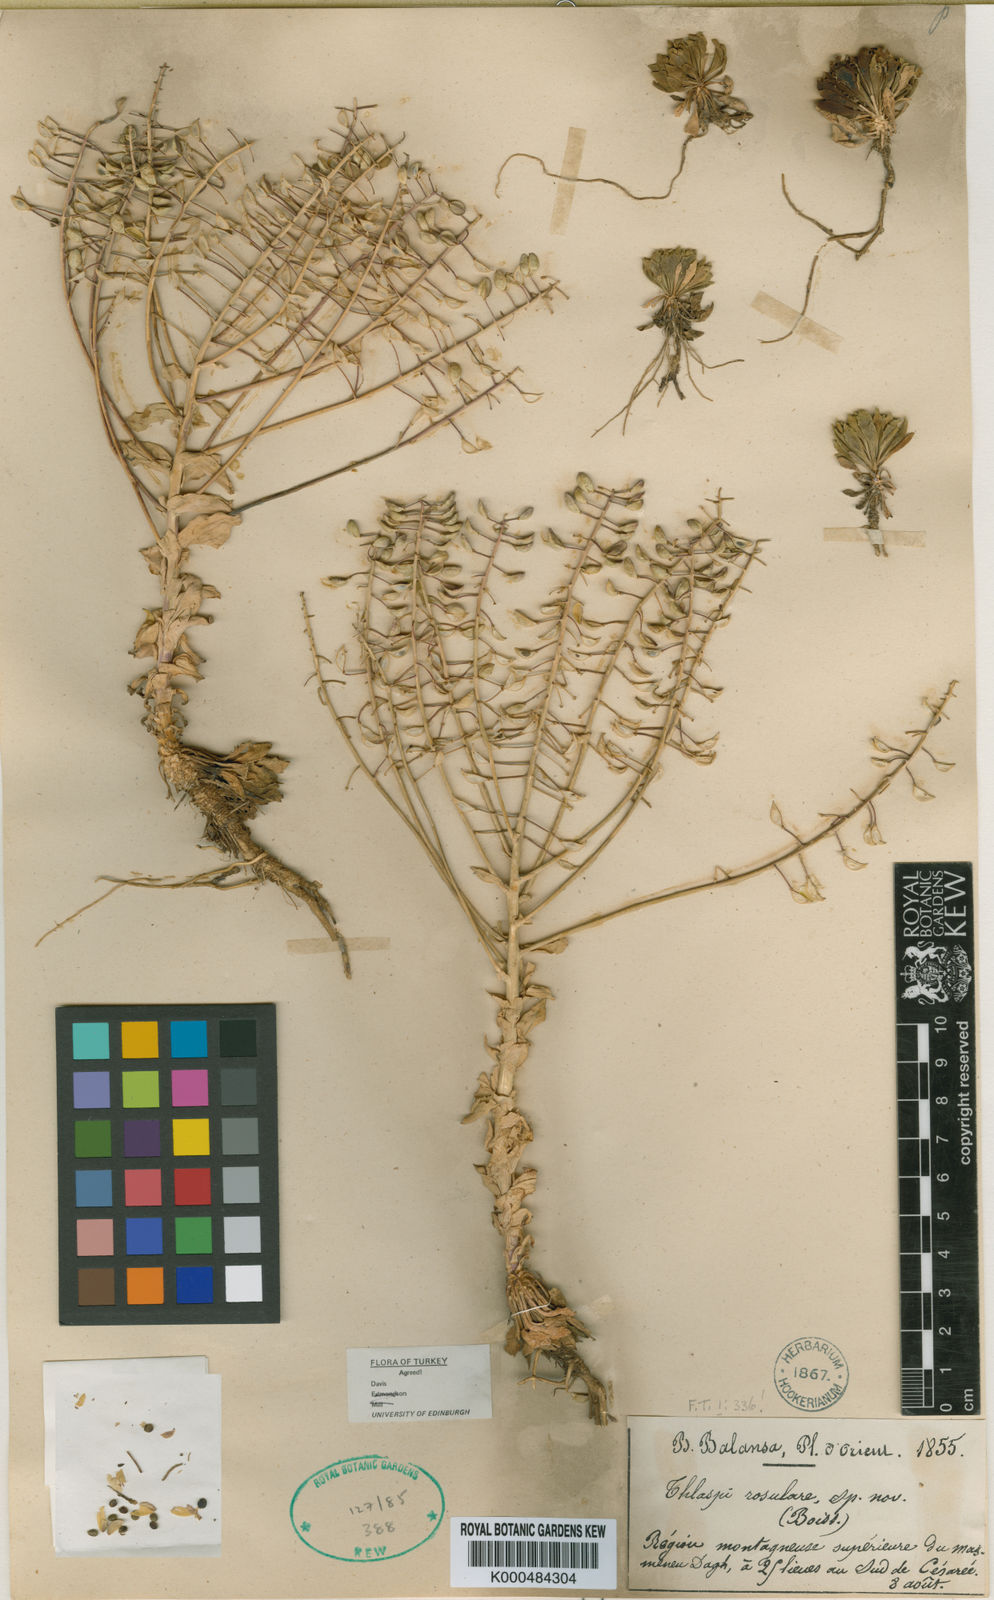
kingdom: Plantae
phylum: Tracheophyta
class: Magnoliopsida
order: Brassicales
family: Brassicaceae
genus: Noccaea
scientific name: Noccaea rosularis
